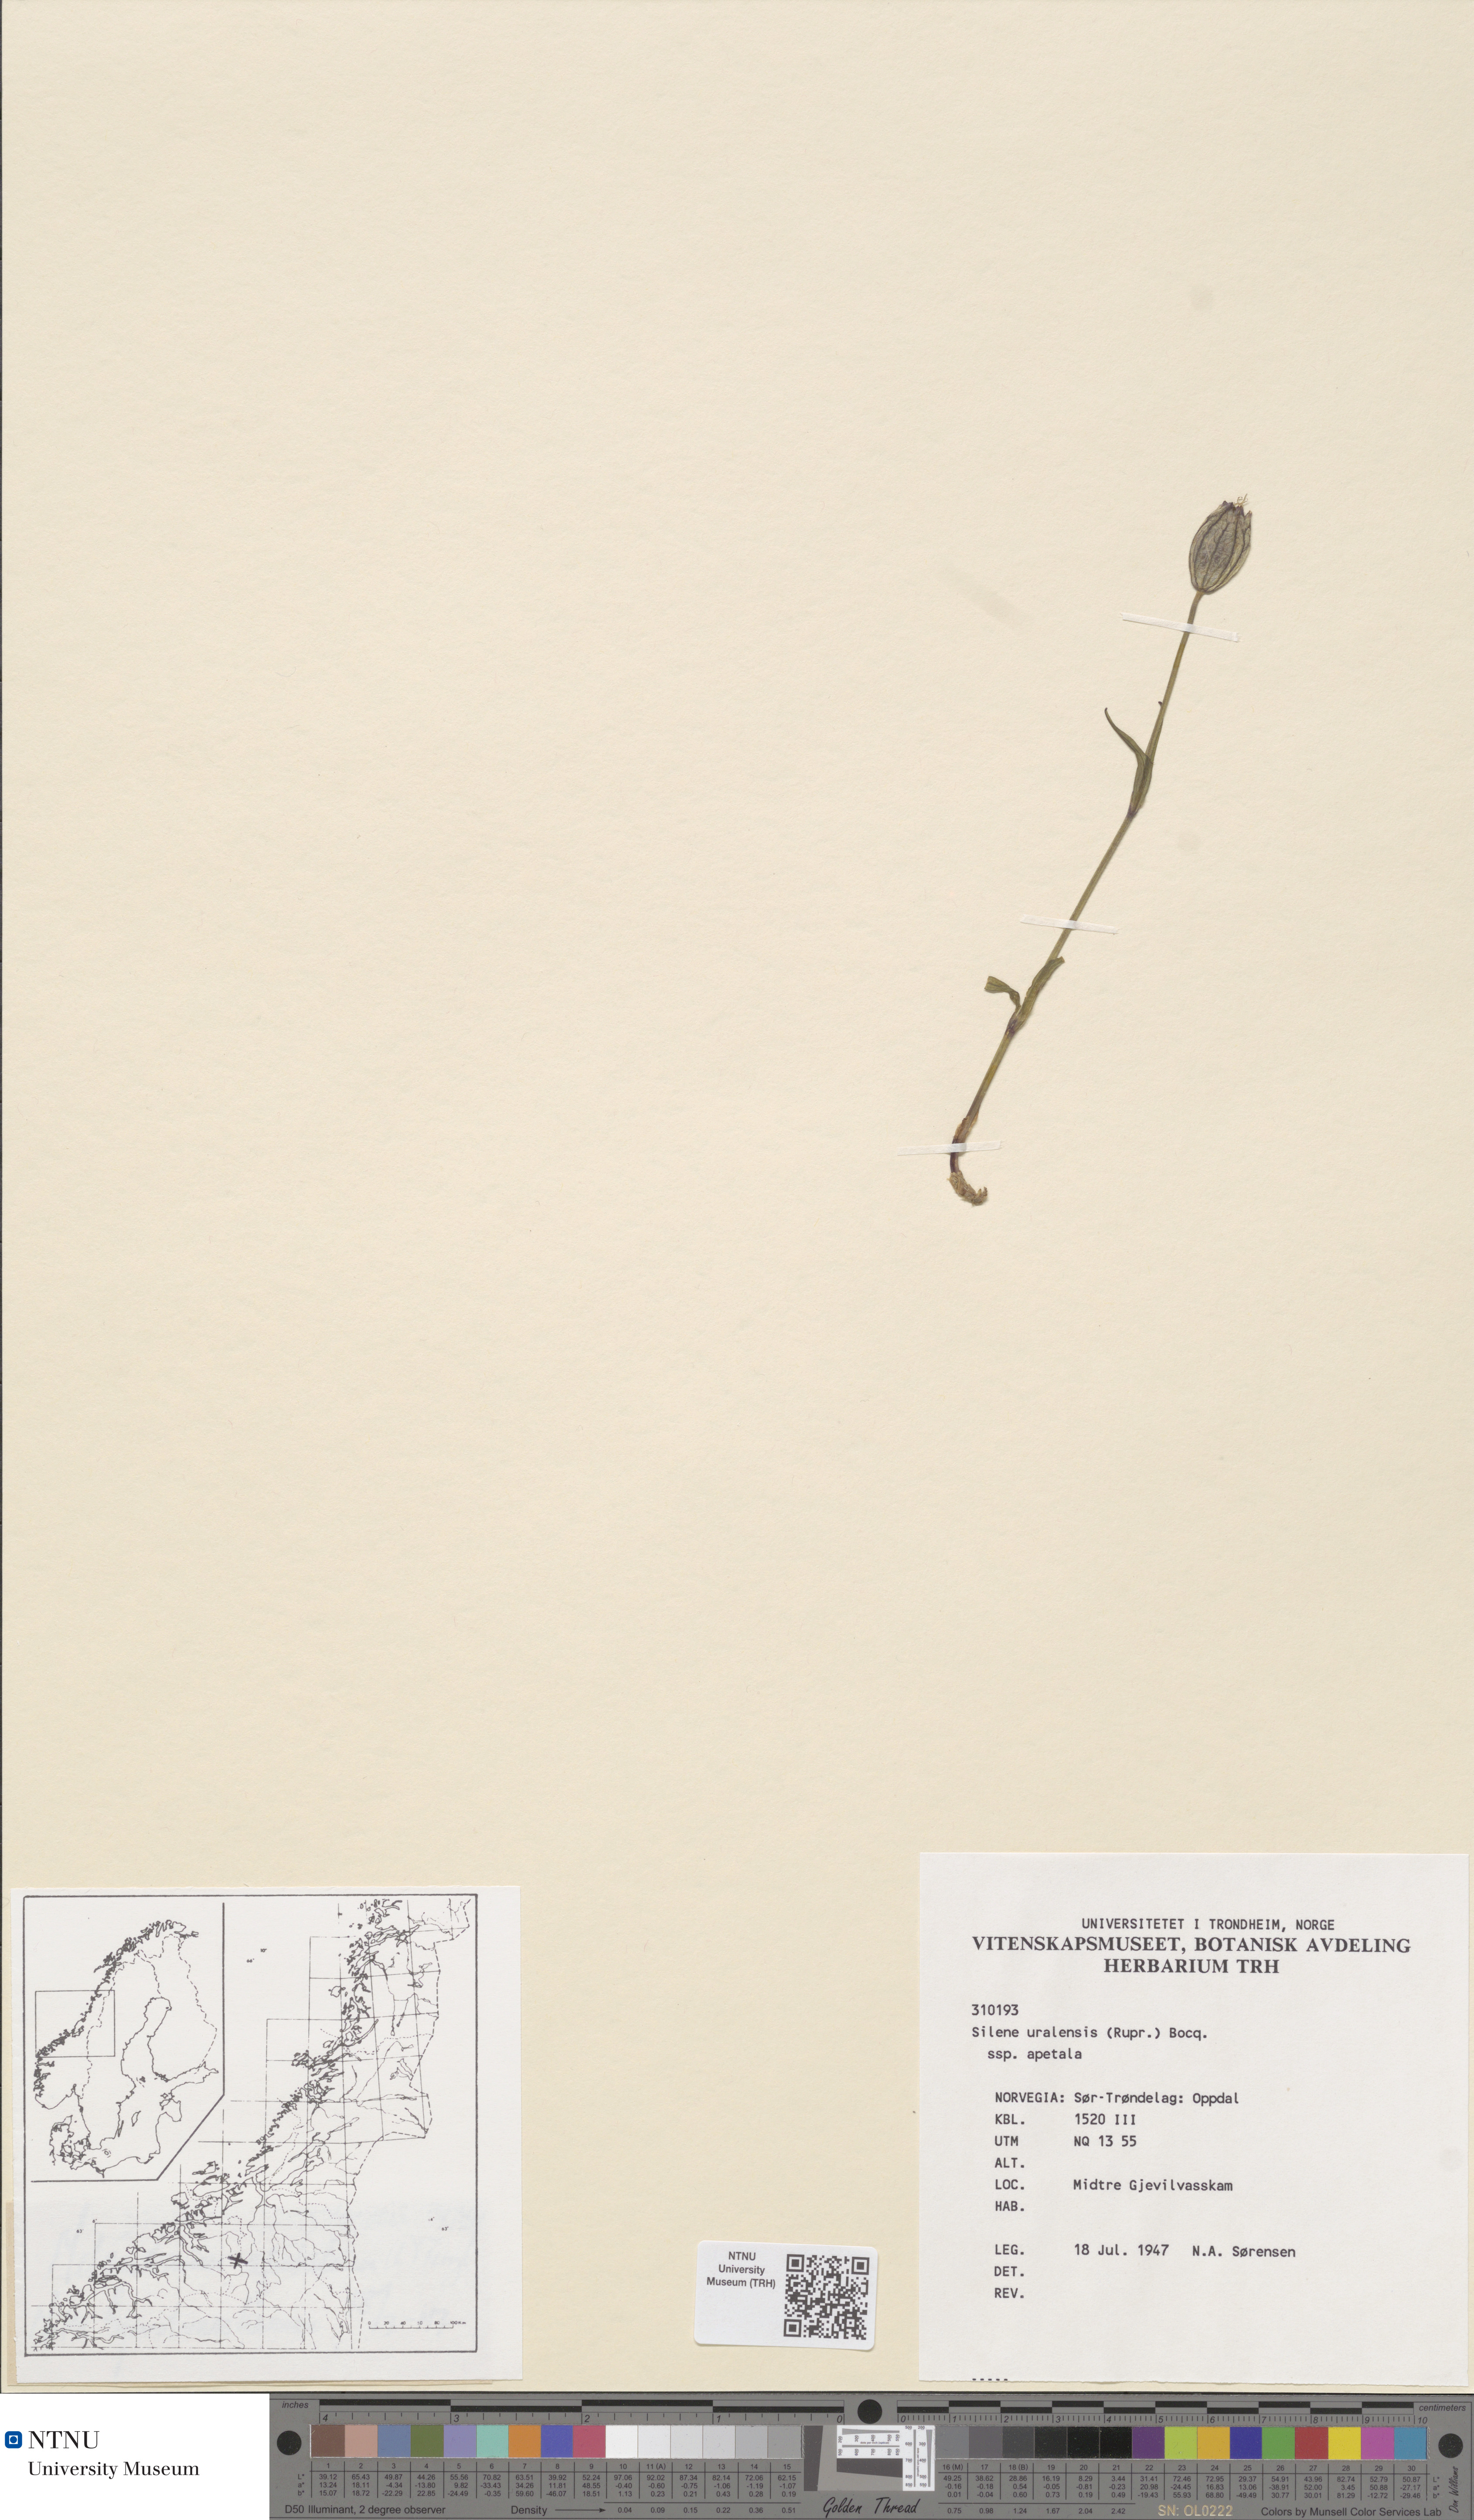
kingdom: Plantae
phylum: Tracheophyta
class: Magnoliopsida
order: Caryophyllales
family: Caryophyllaceae
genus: Silene
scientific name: Silene wahlbergella
